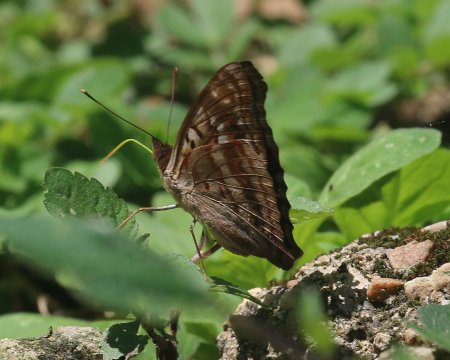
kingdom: Animalia
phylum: Arthropoda
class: Insecta
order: Lepidoptera
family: Nymphalidae
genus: Doxocopa
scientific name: Doxocopa pavon
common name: Pavon Emperor
